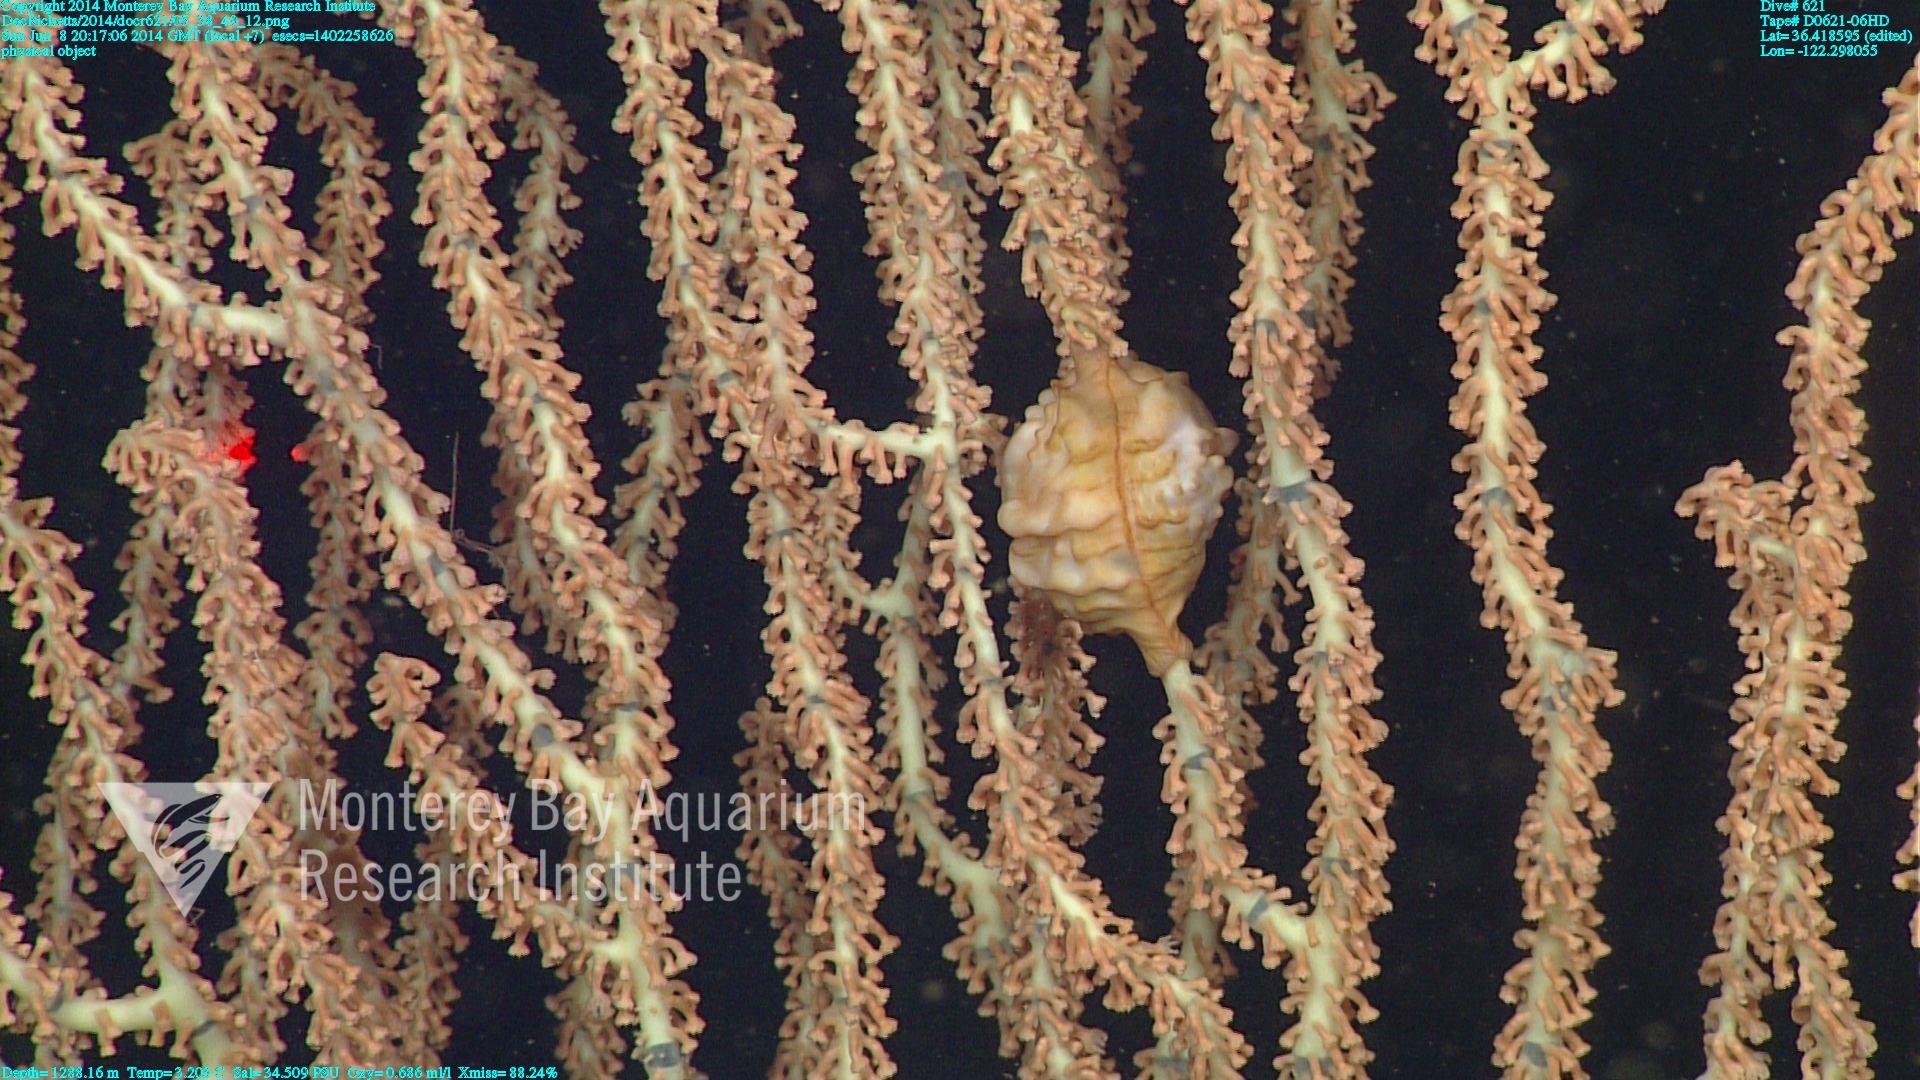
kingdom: Animalia
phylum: Cnidaria
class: Anthozoa
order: Scleralcyonacea
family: Keratoisididae
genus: Keratoisis
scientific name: Keratoisis
